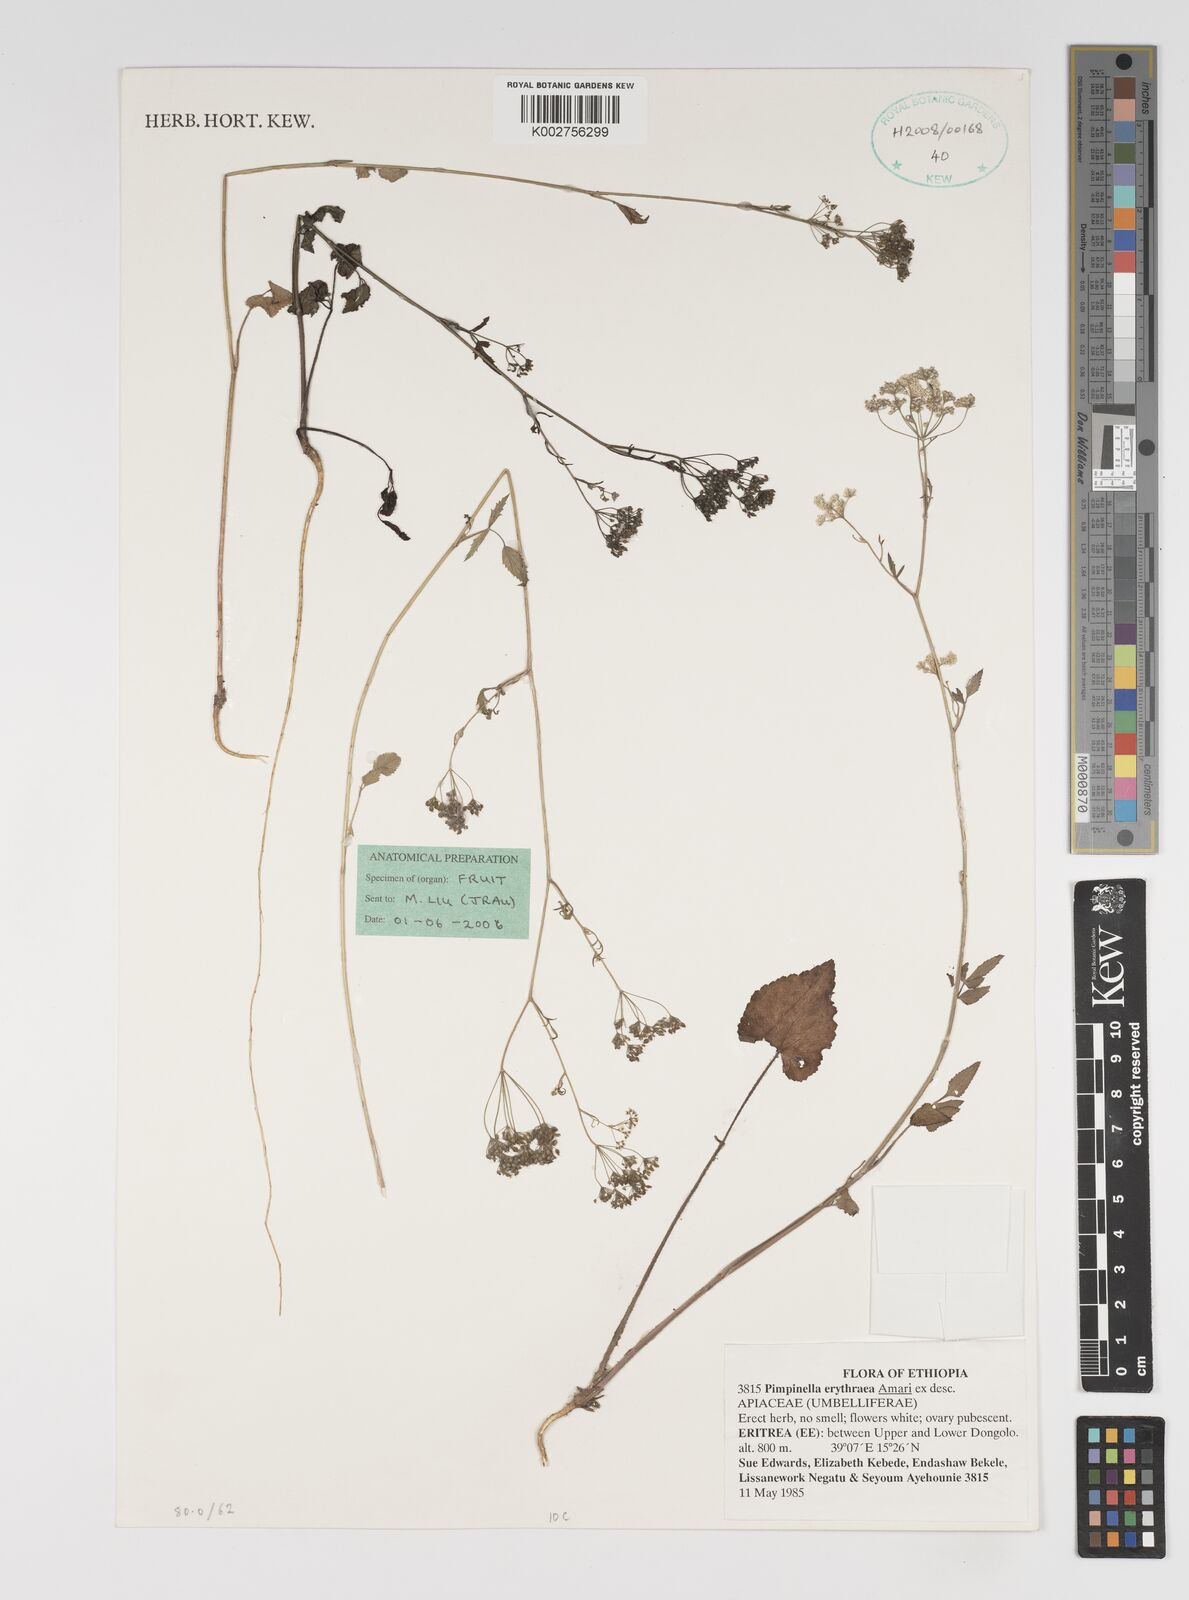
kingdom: Plantae
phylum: Tracheophyta
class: Magnoliopsida
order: Apiales
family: Apiaceae
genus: Pimpinella
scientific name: Pimpinella erythraeae
